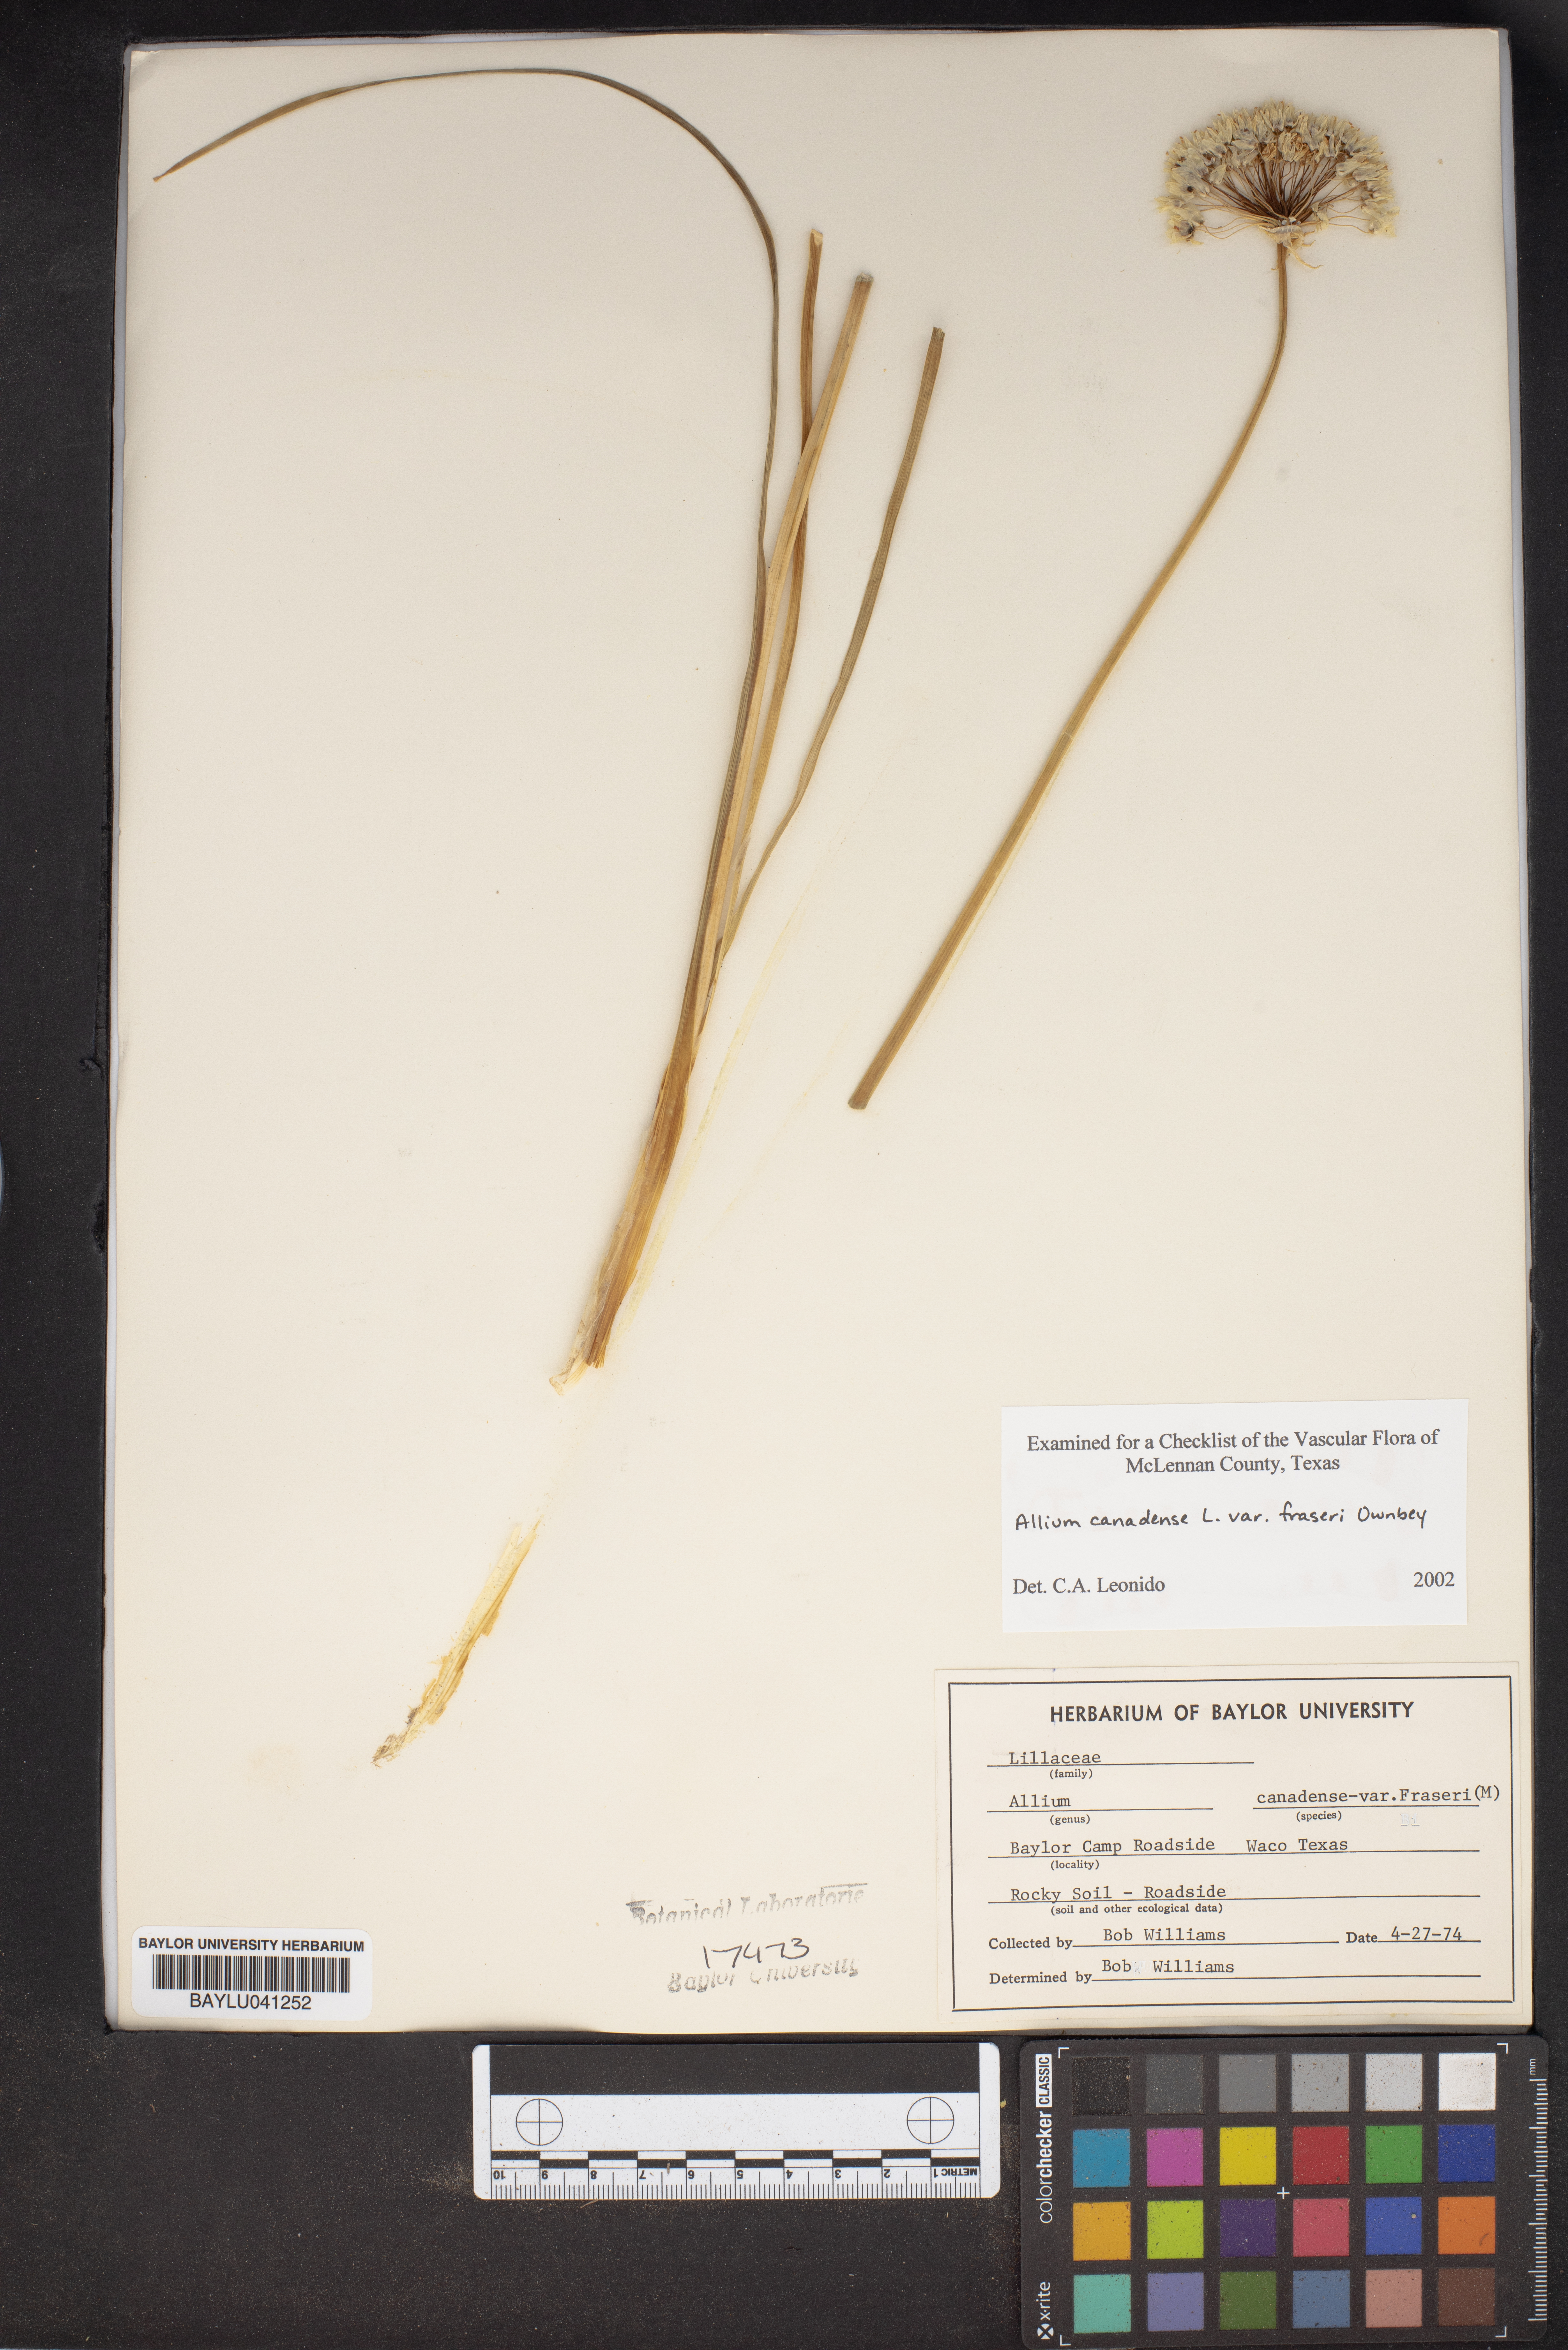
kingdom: Plantae
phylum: Tracheophyta
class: Liliopsida
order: Asparagales
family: Amaryllidaceae
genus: Allium
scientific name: Allium fraseri
